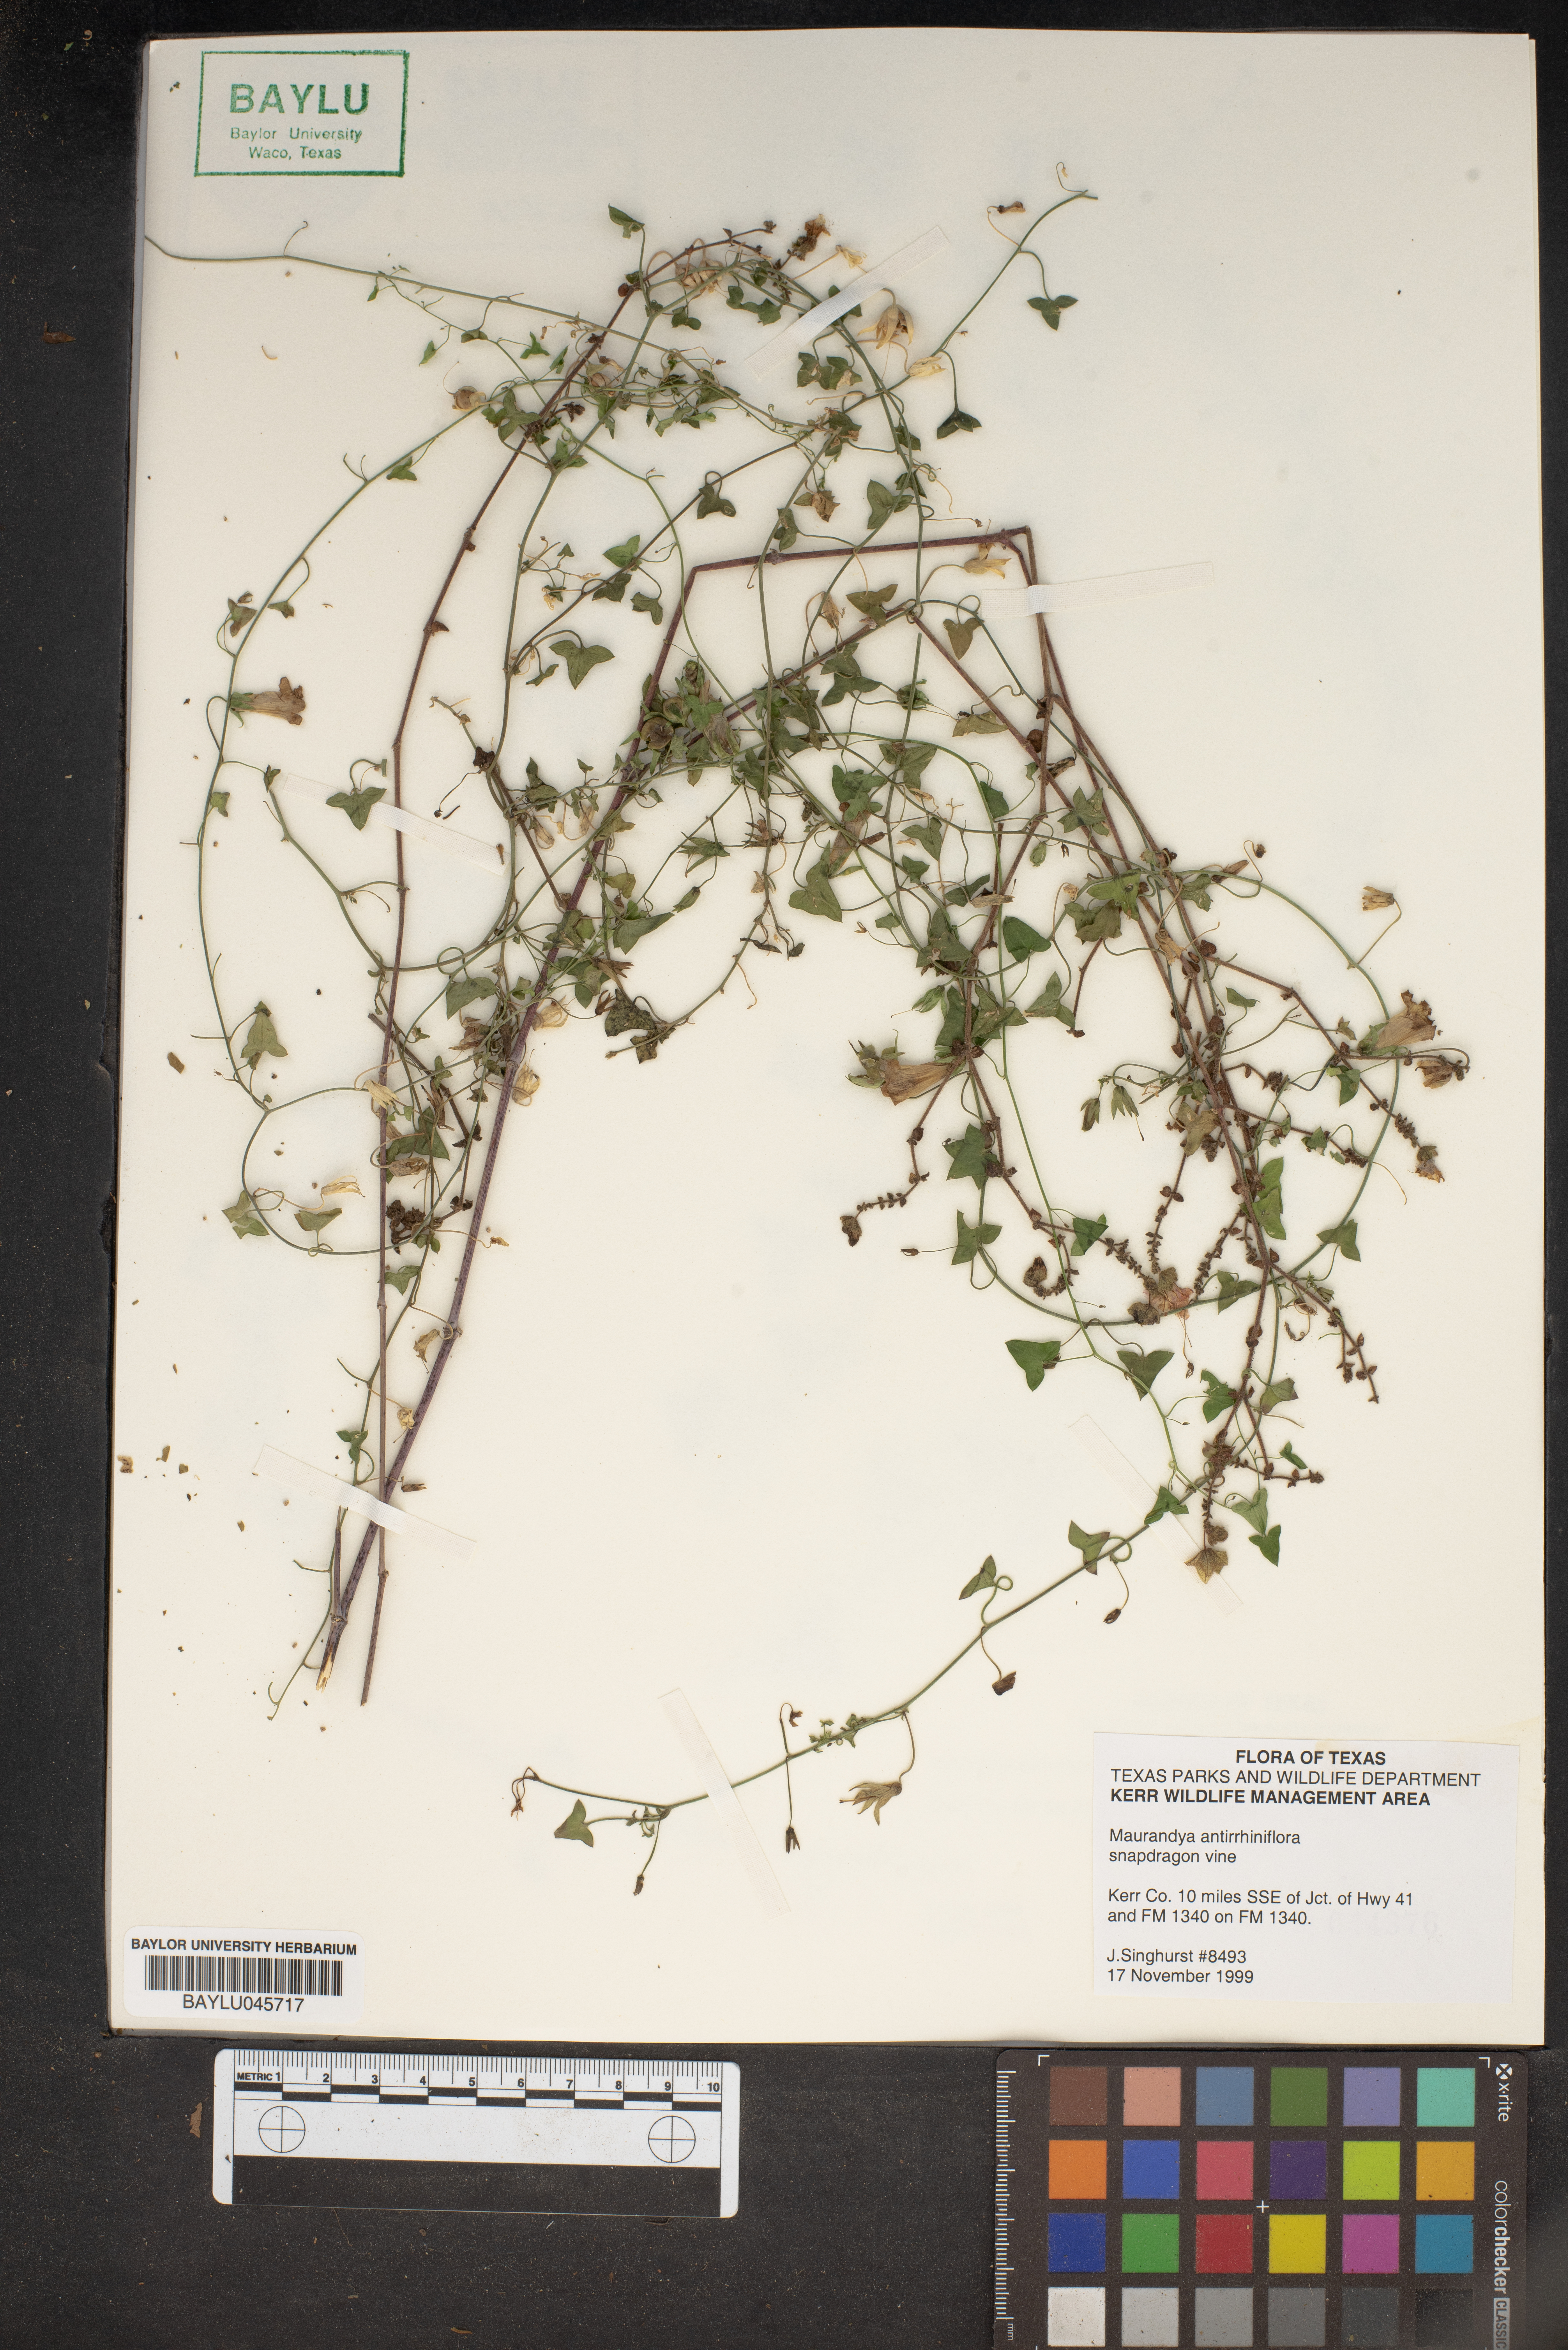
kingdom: Plantae
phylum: Tracheophyta
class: Magnoliopsida
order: Lamiales
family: Plantaginaceae
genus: Maurandella
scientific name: Maurandella antirrhiniflora
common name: Violet twining-snapdragon
